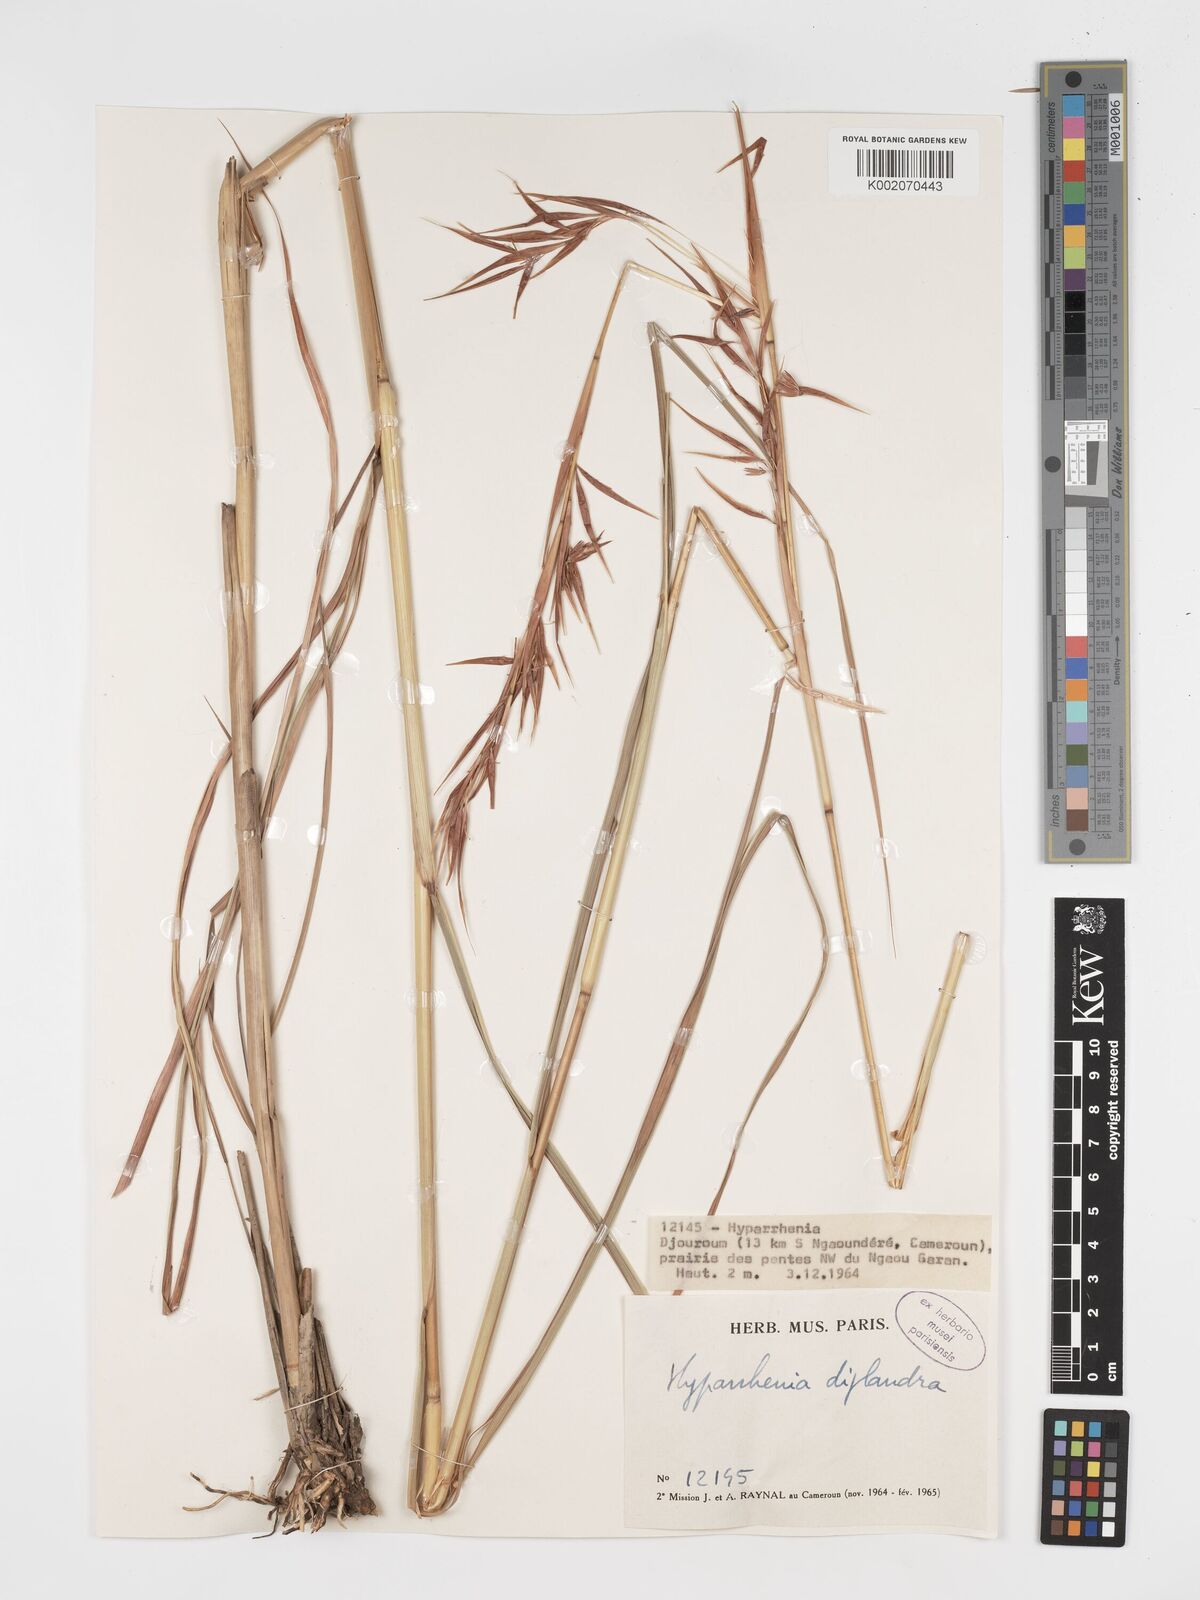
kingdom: Plantae
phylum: Tracheophyta
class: Liliopsida
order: Poales
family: Poaceae
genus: Hyparrhenia
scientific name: Hyparrhenia diplandra
